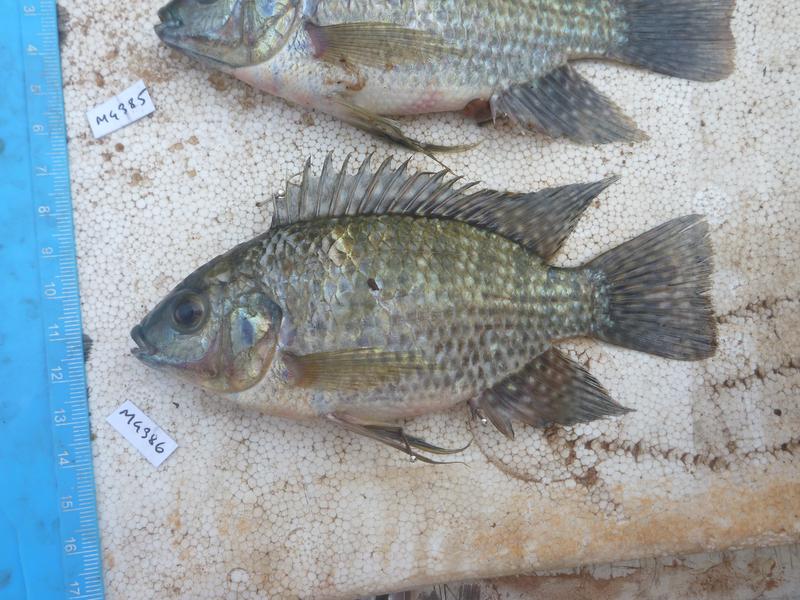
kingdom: Animalia
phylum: Chordata
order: Perciformes
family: Cichlidae
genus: Oreochromis
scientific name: Oreochromis leucostictus
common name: Blue spotted tilapia
